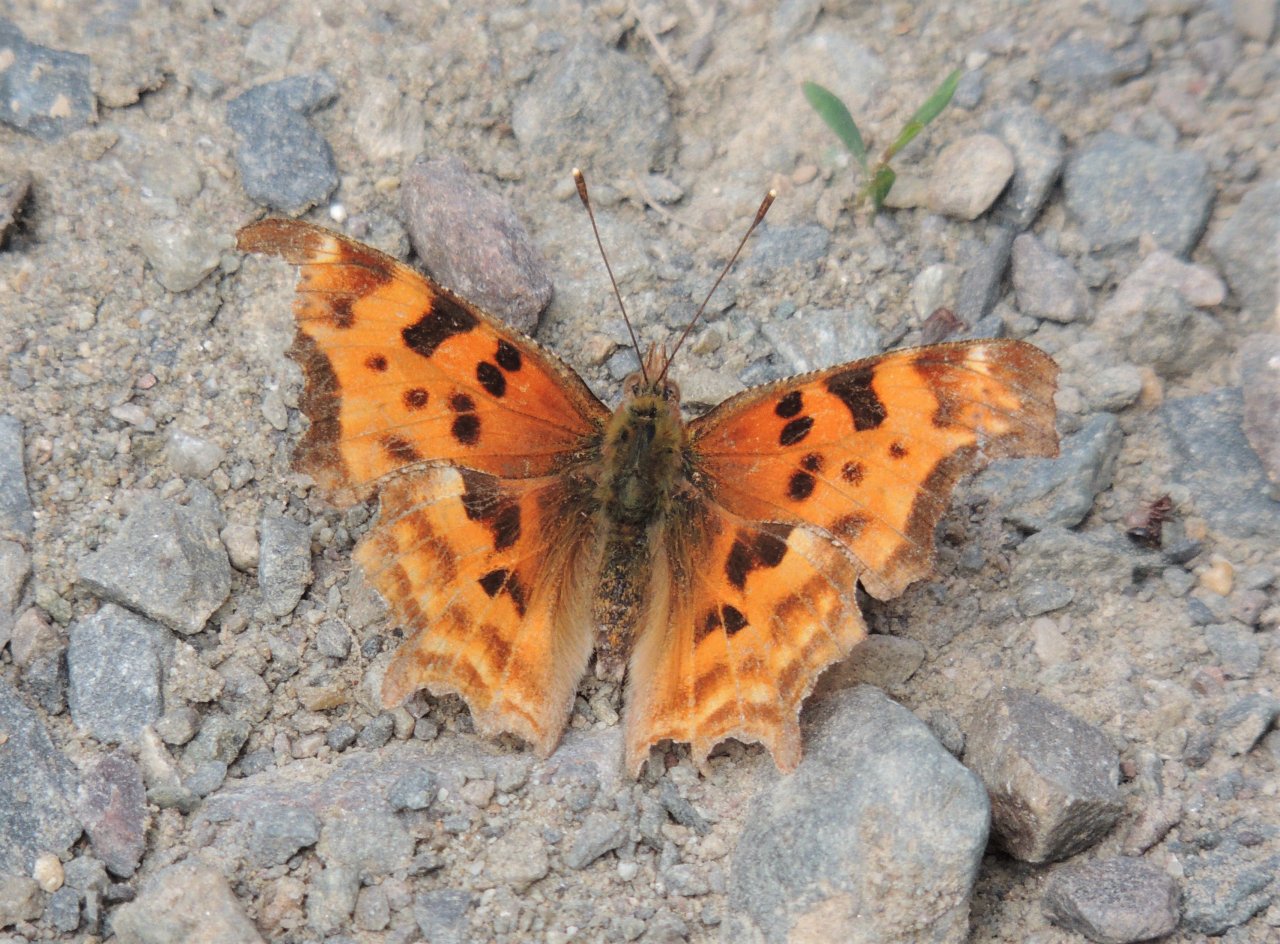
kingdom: Animalia
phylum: Arthropoda
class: Insecta
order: Lepidoptera
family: Nymphalidae
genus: Polygonia
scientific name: Polygonia satyrus
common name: Satyr Comma
